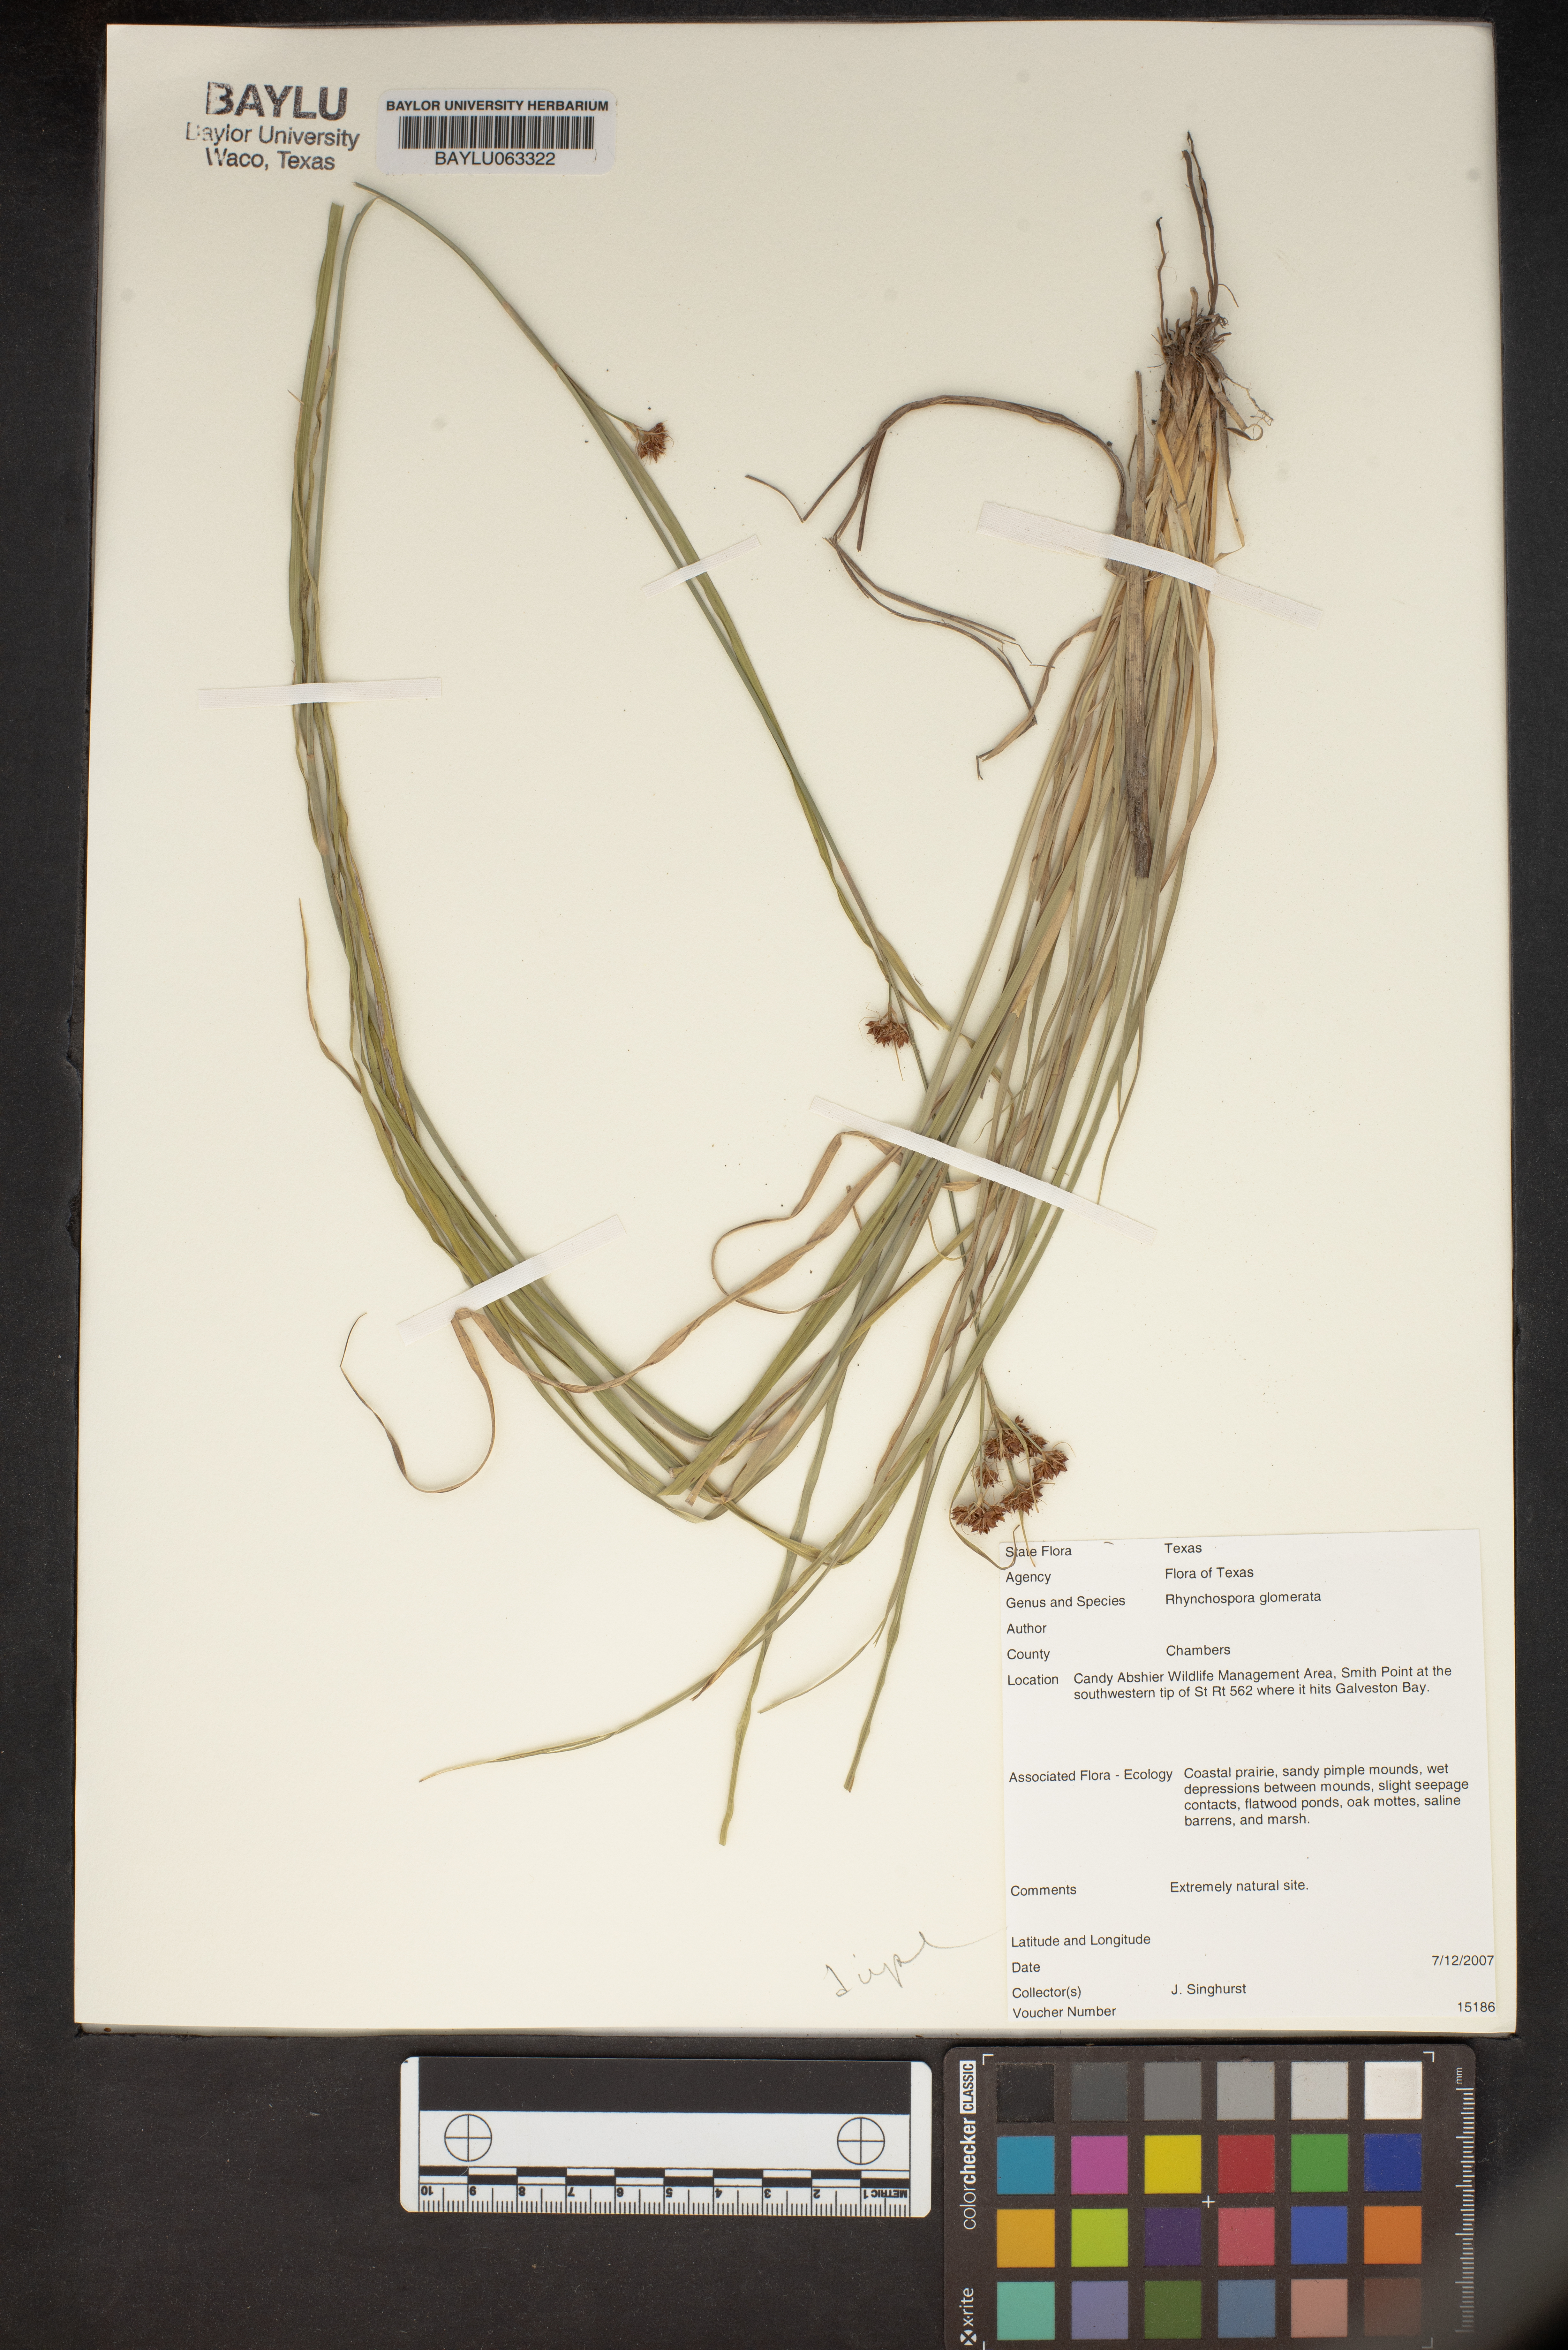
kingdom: Plantae
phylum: Tracheophyta
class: Liliopsida
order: Poales
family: Cyperaceae
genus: Rhynchospora
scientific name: Rhynchospora glomerata
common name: Cluster beak sedge
